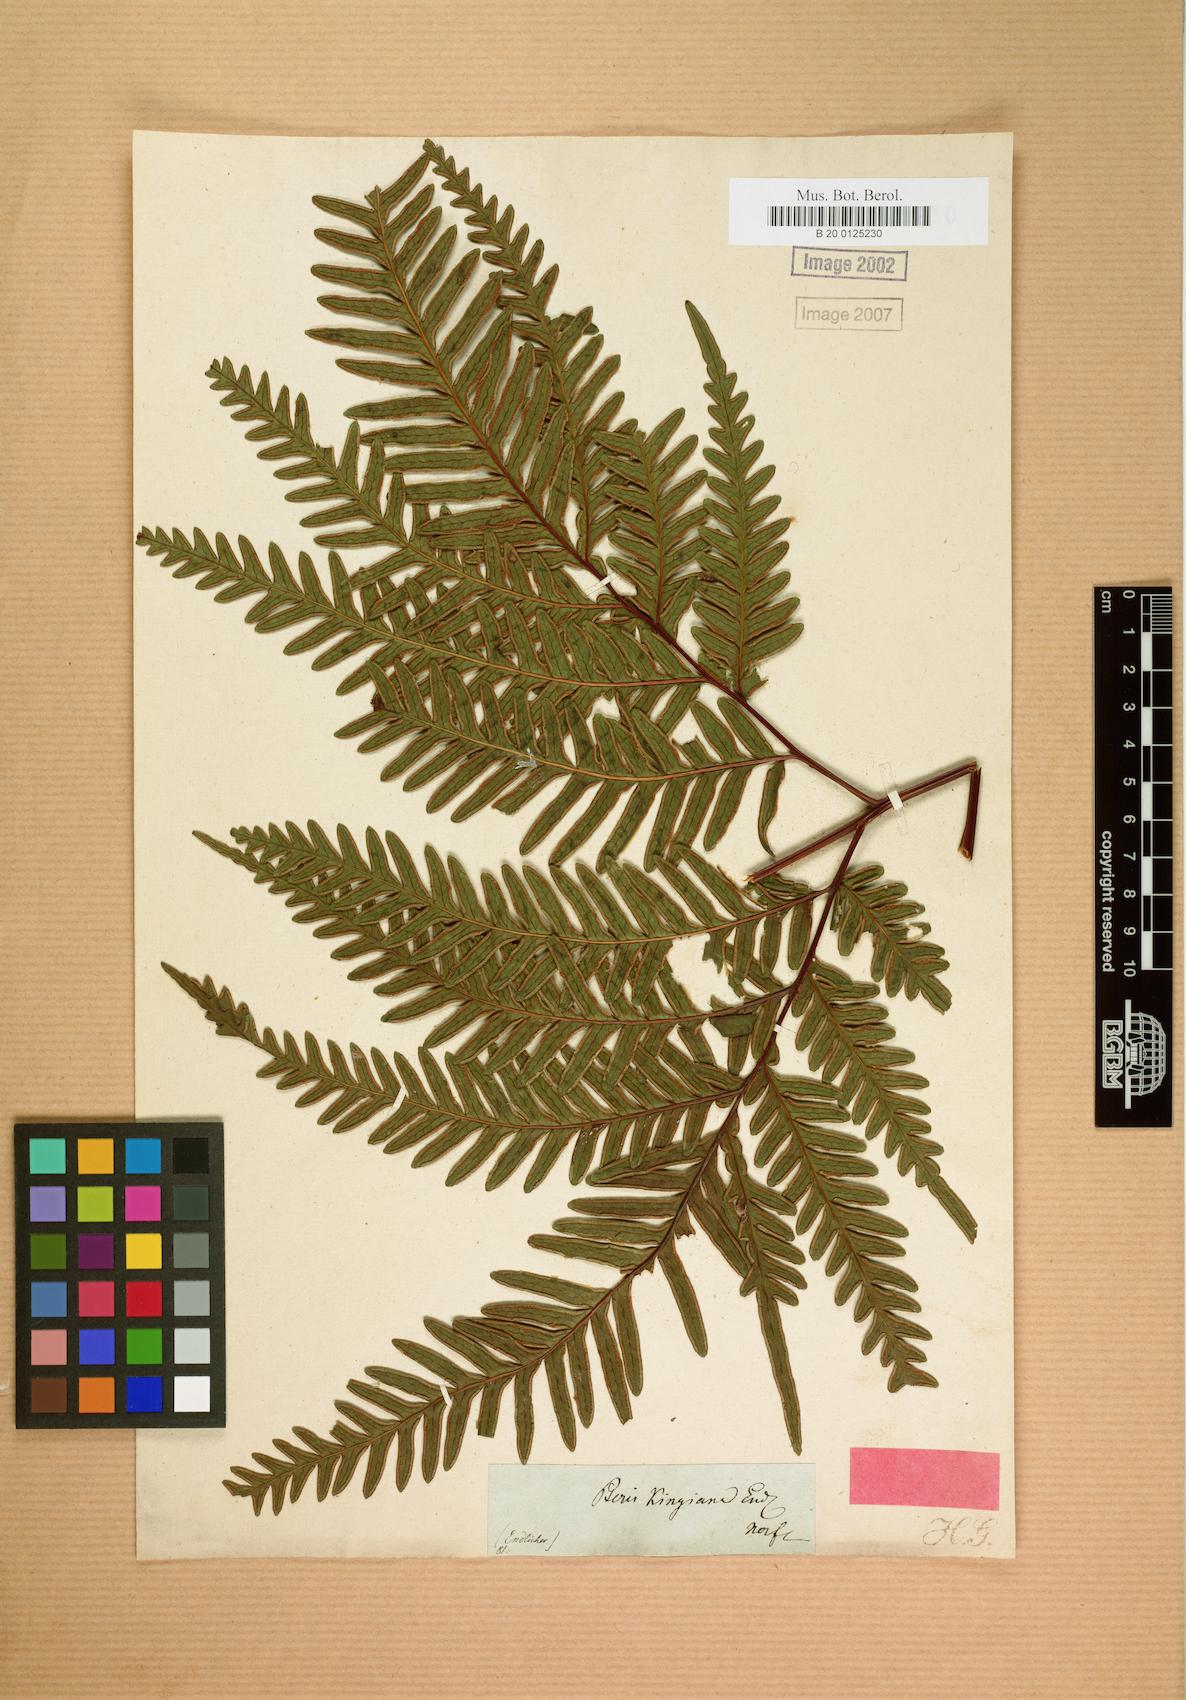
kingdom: Plantae
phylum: Tracheophyta
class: Polypodiopsida
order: Polypodiales
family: Pteridaceae
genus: Pteris
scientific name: Pteris kingiana
